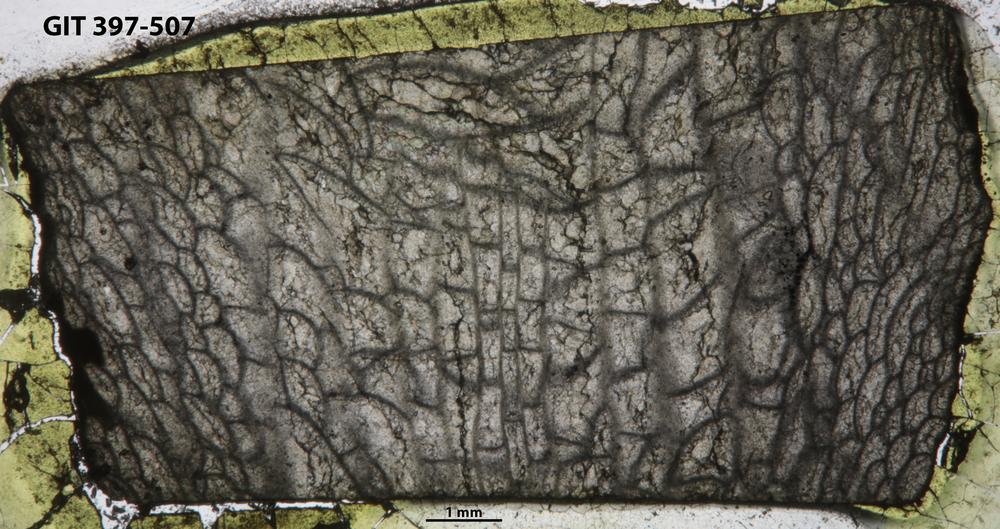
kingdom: Animalia
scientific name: Animalia
